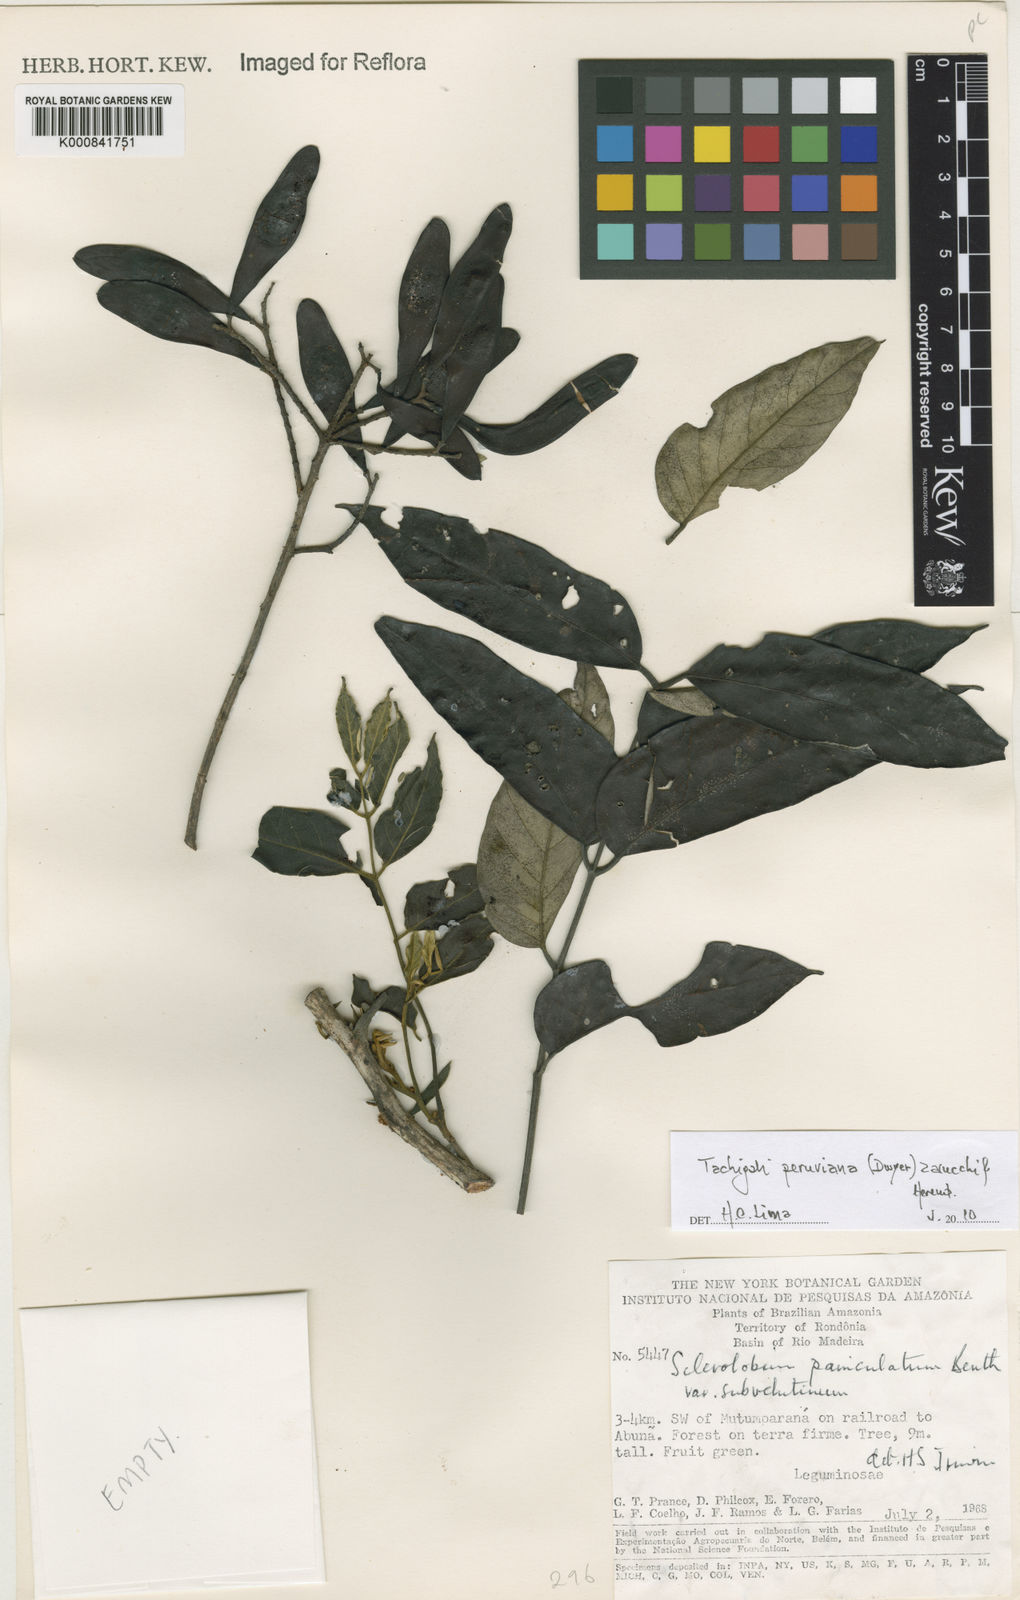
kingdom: Plantae
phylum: Tracheophyta
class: Magnoliopsida
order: Fabales
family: Fabaceae
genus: Tachigali
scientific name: Tachigali peruviana
